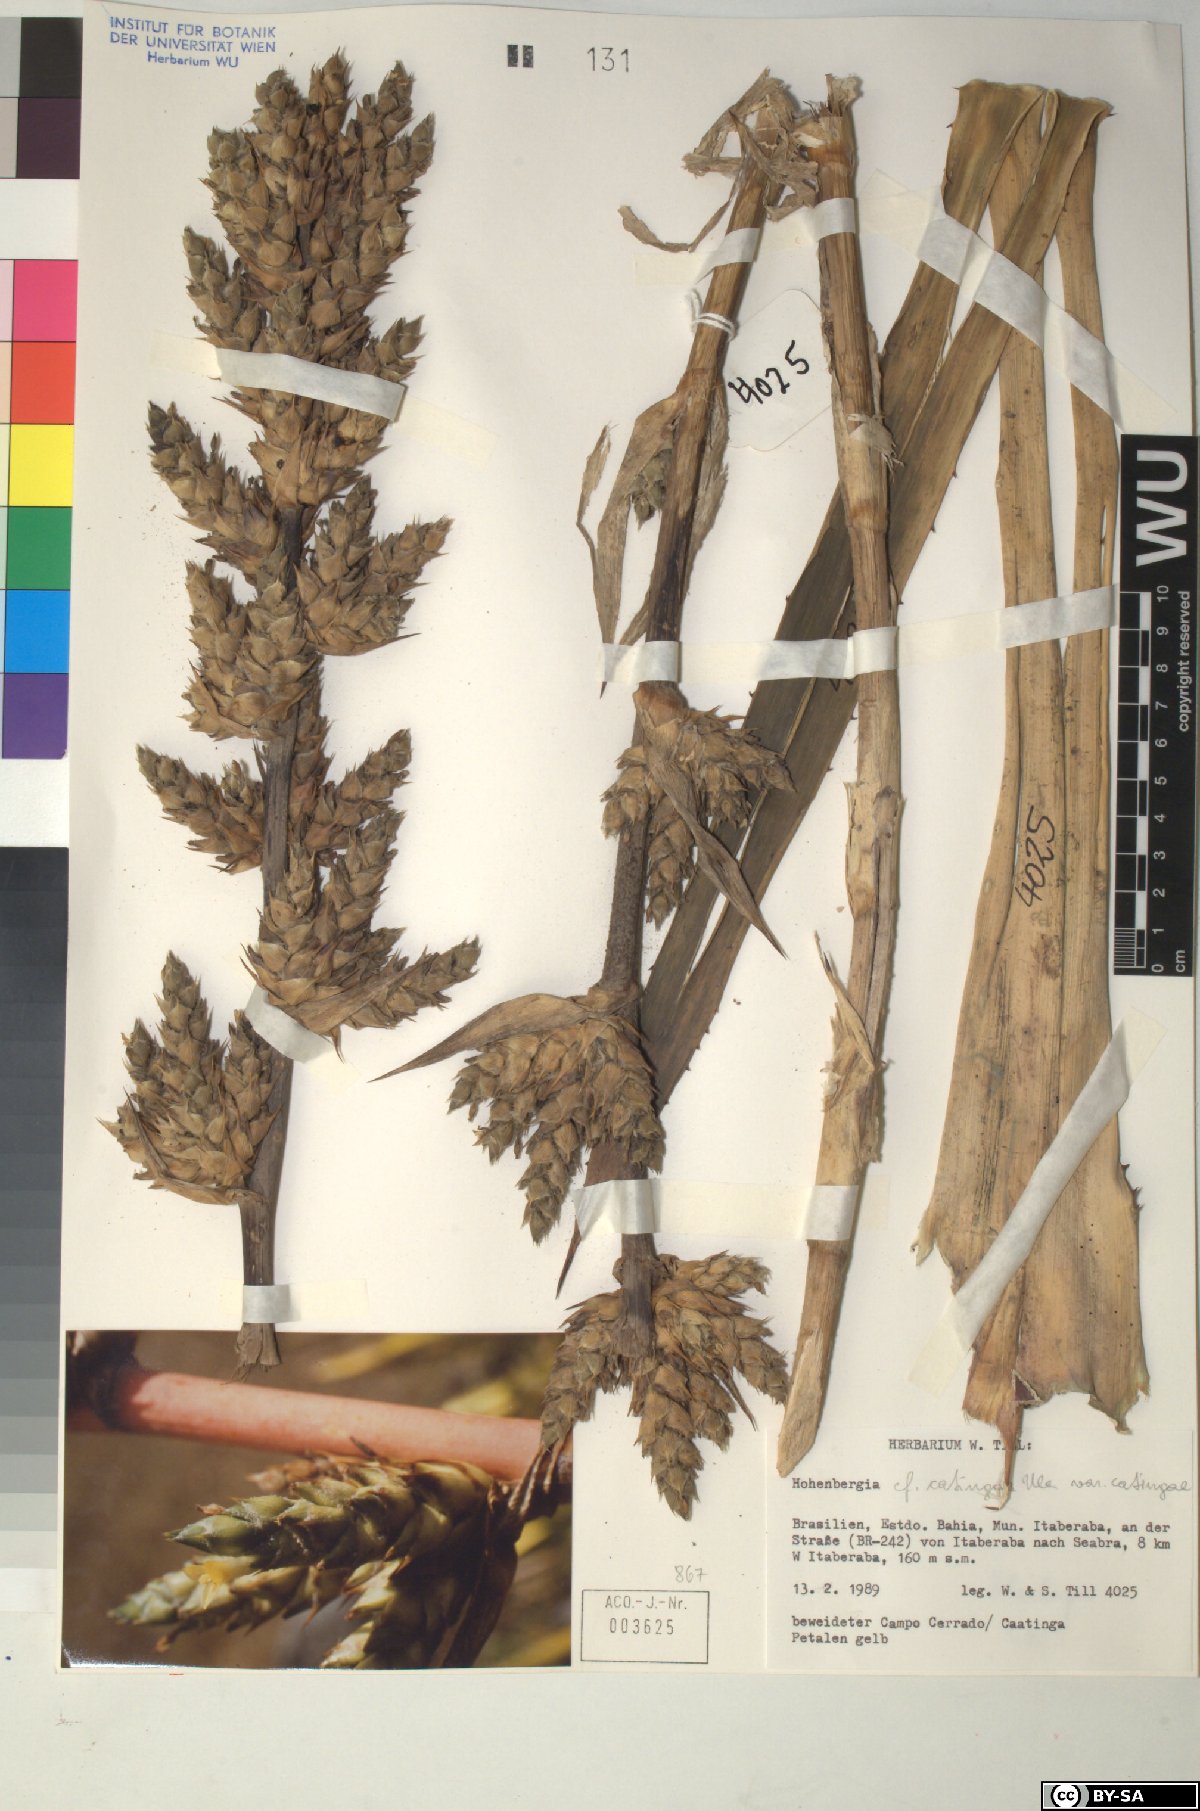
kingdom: Plantae
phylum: Tracheophyta
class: Liliopsida
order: Poales
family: Bromeliaceae
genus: Hohenbergia
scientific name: Hohenbergia
